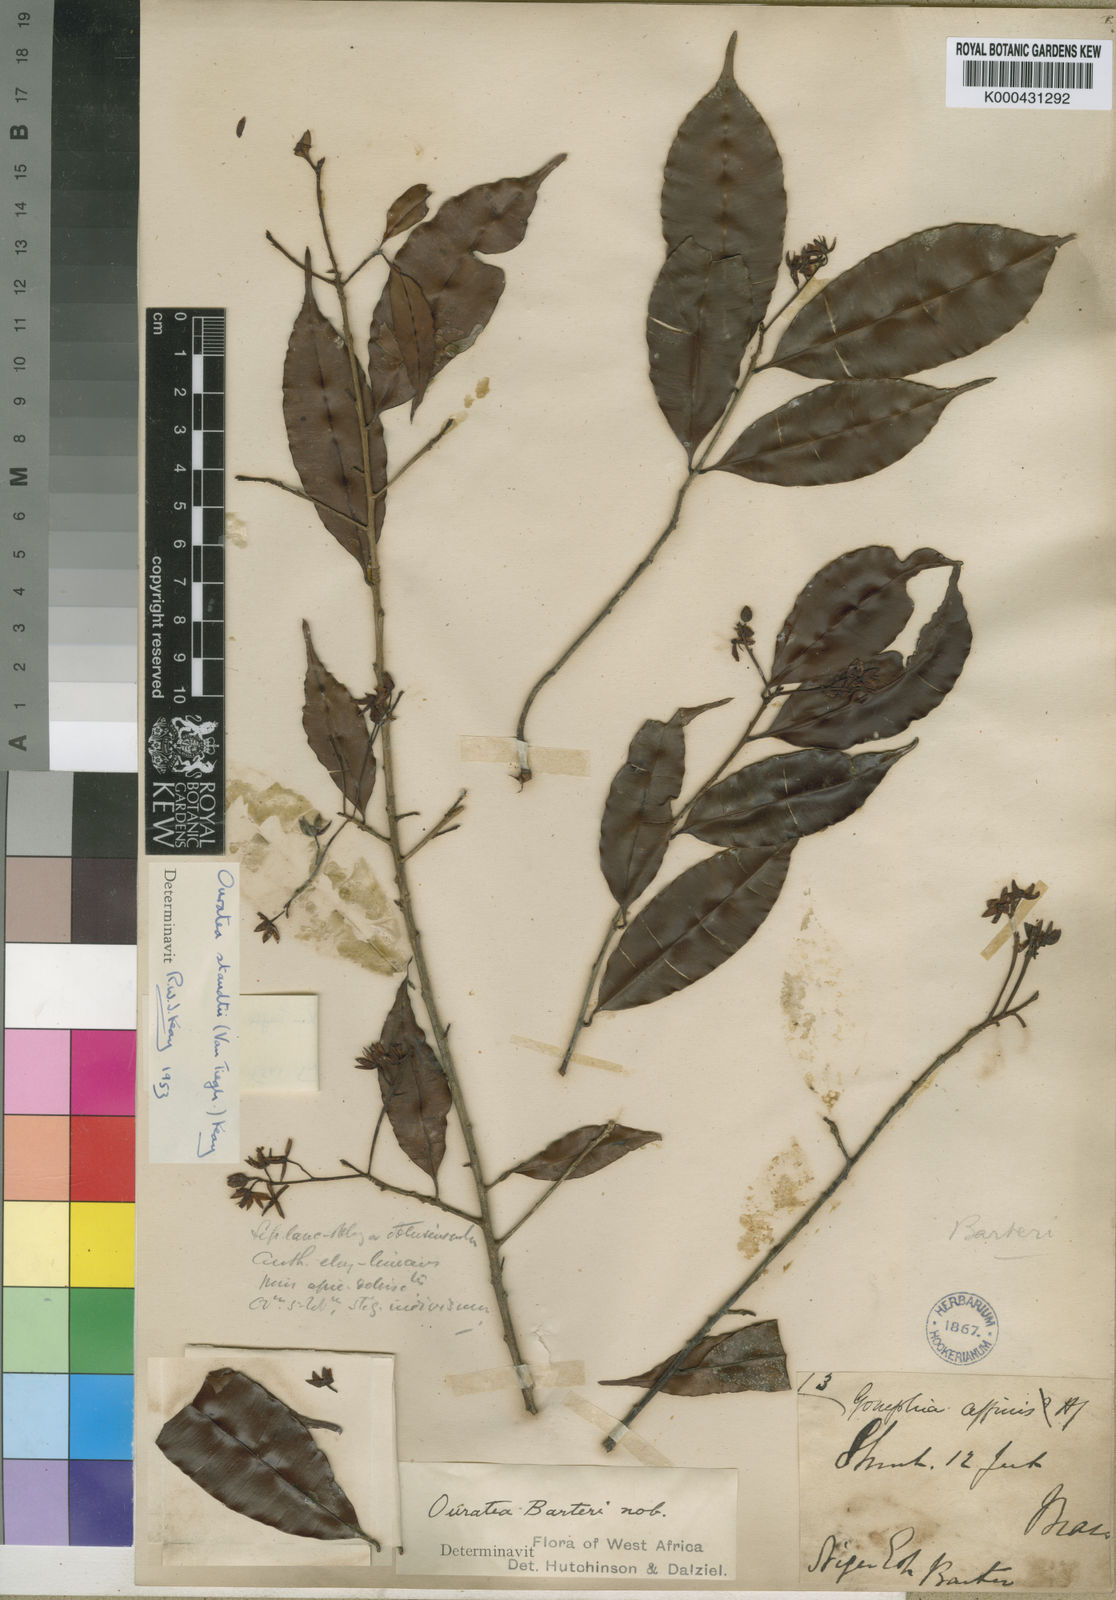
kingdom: Plantae
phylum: Tracheophyta
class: Magnoliopsida
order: Malpighiales
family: Ochnaceae
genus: Rhabdophyllum
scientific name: Rhabdophyllum
